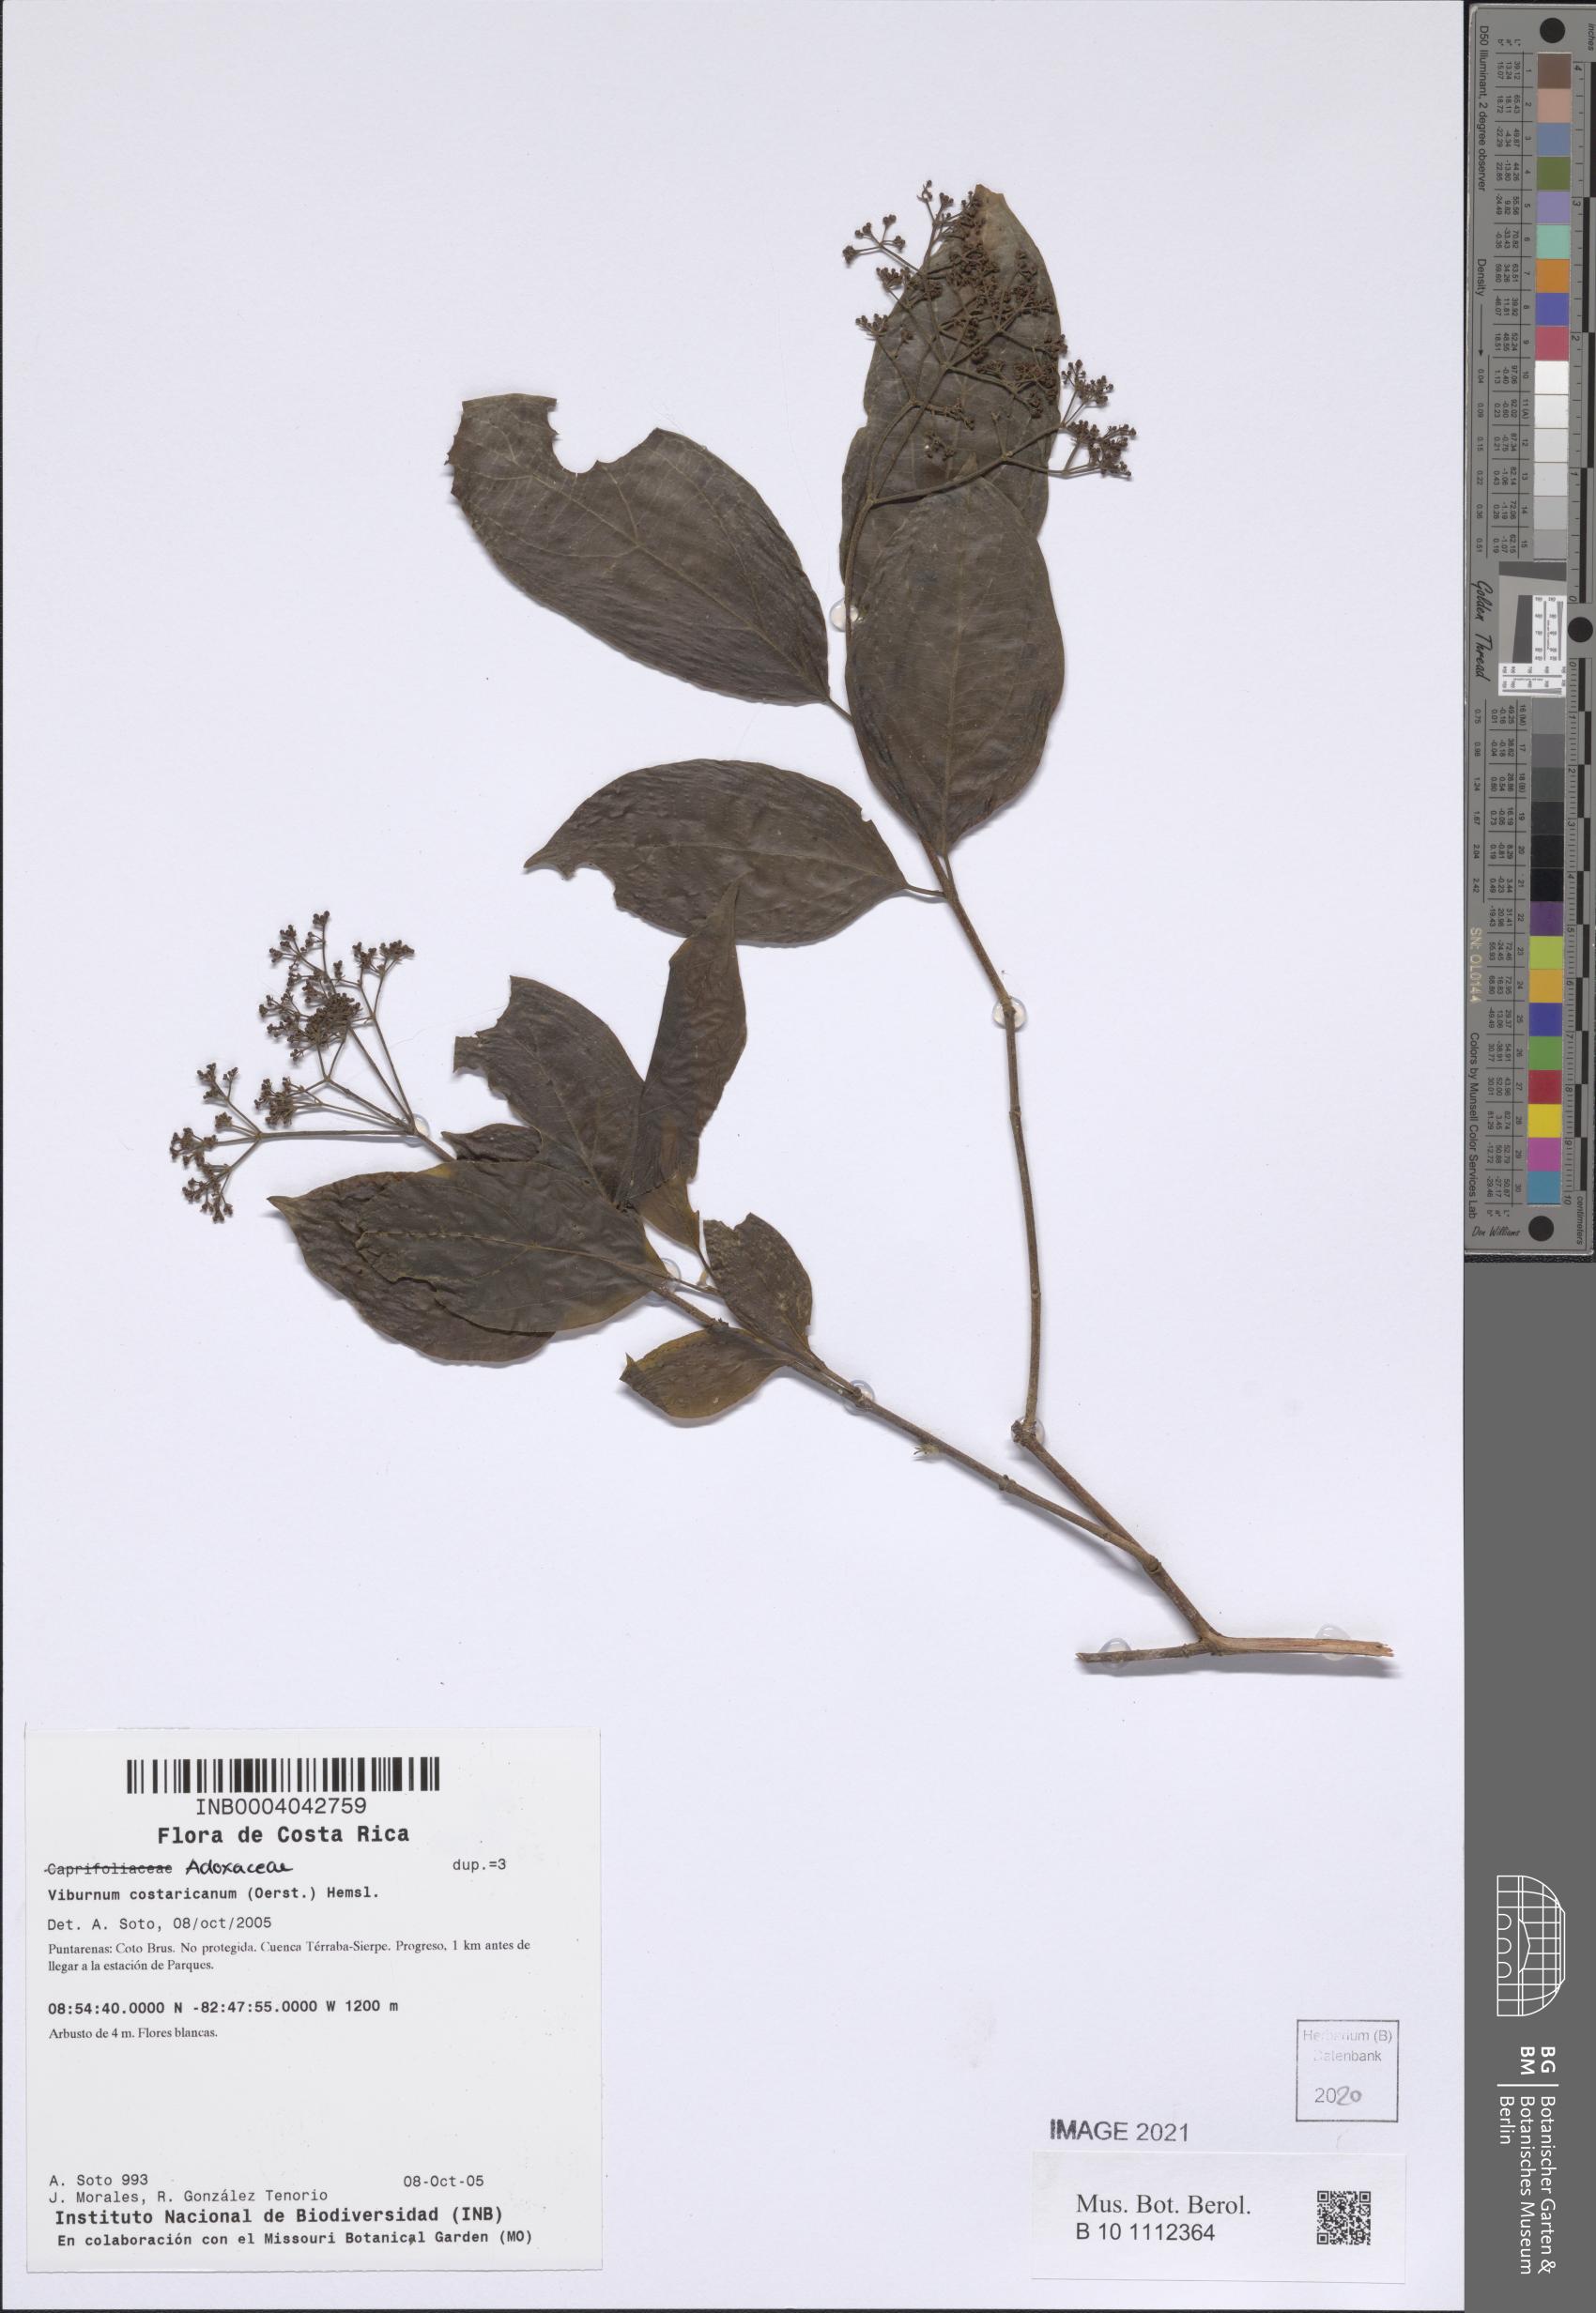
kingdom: Plantae
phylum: Tracheophyta
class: Magnoliopsida
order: Dipsacales
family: Viburnaceae
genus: Viburnum
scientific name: Viburnum costaricanum
